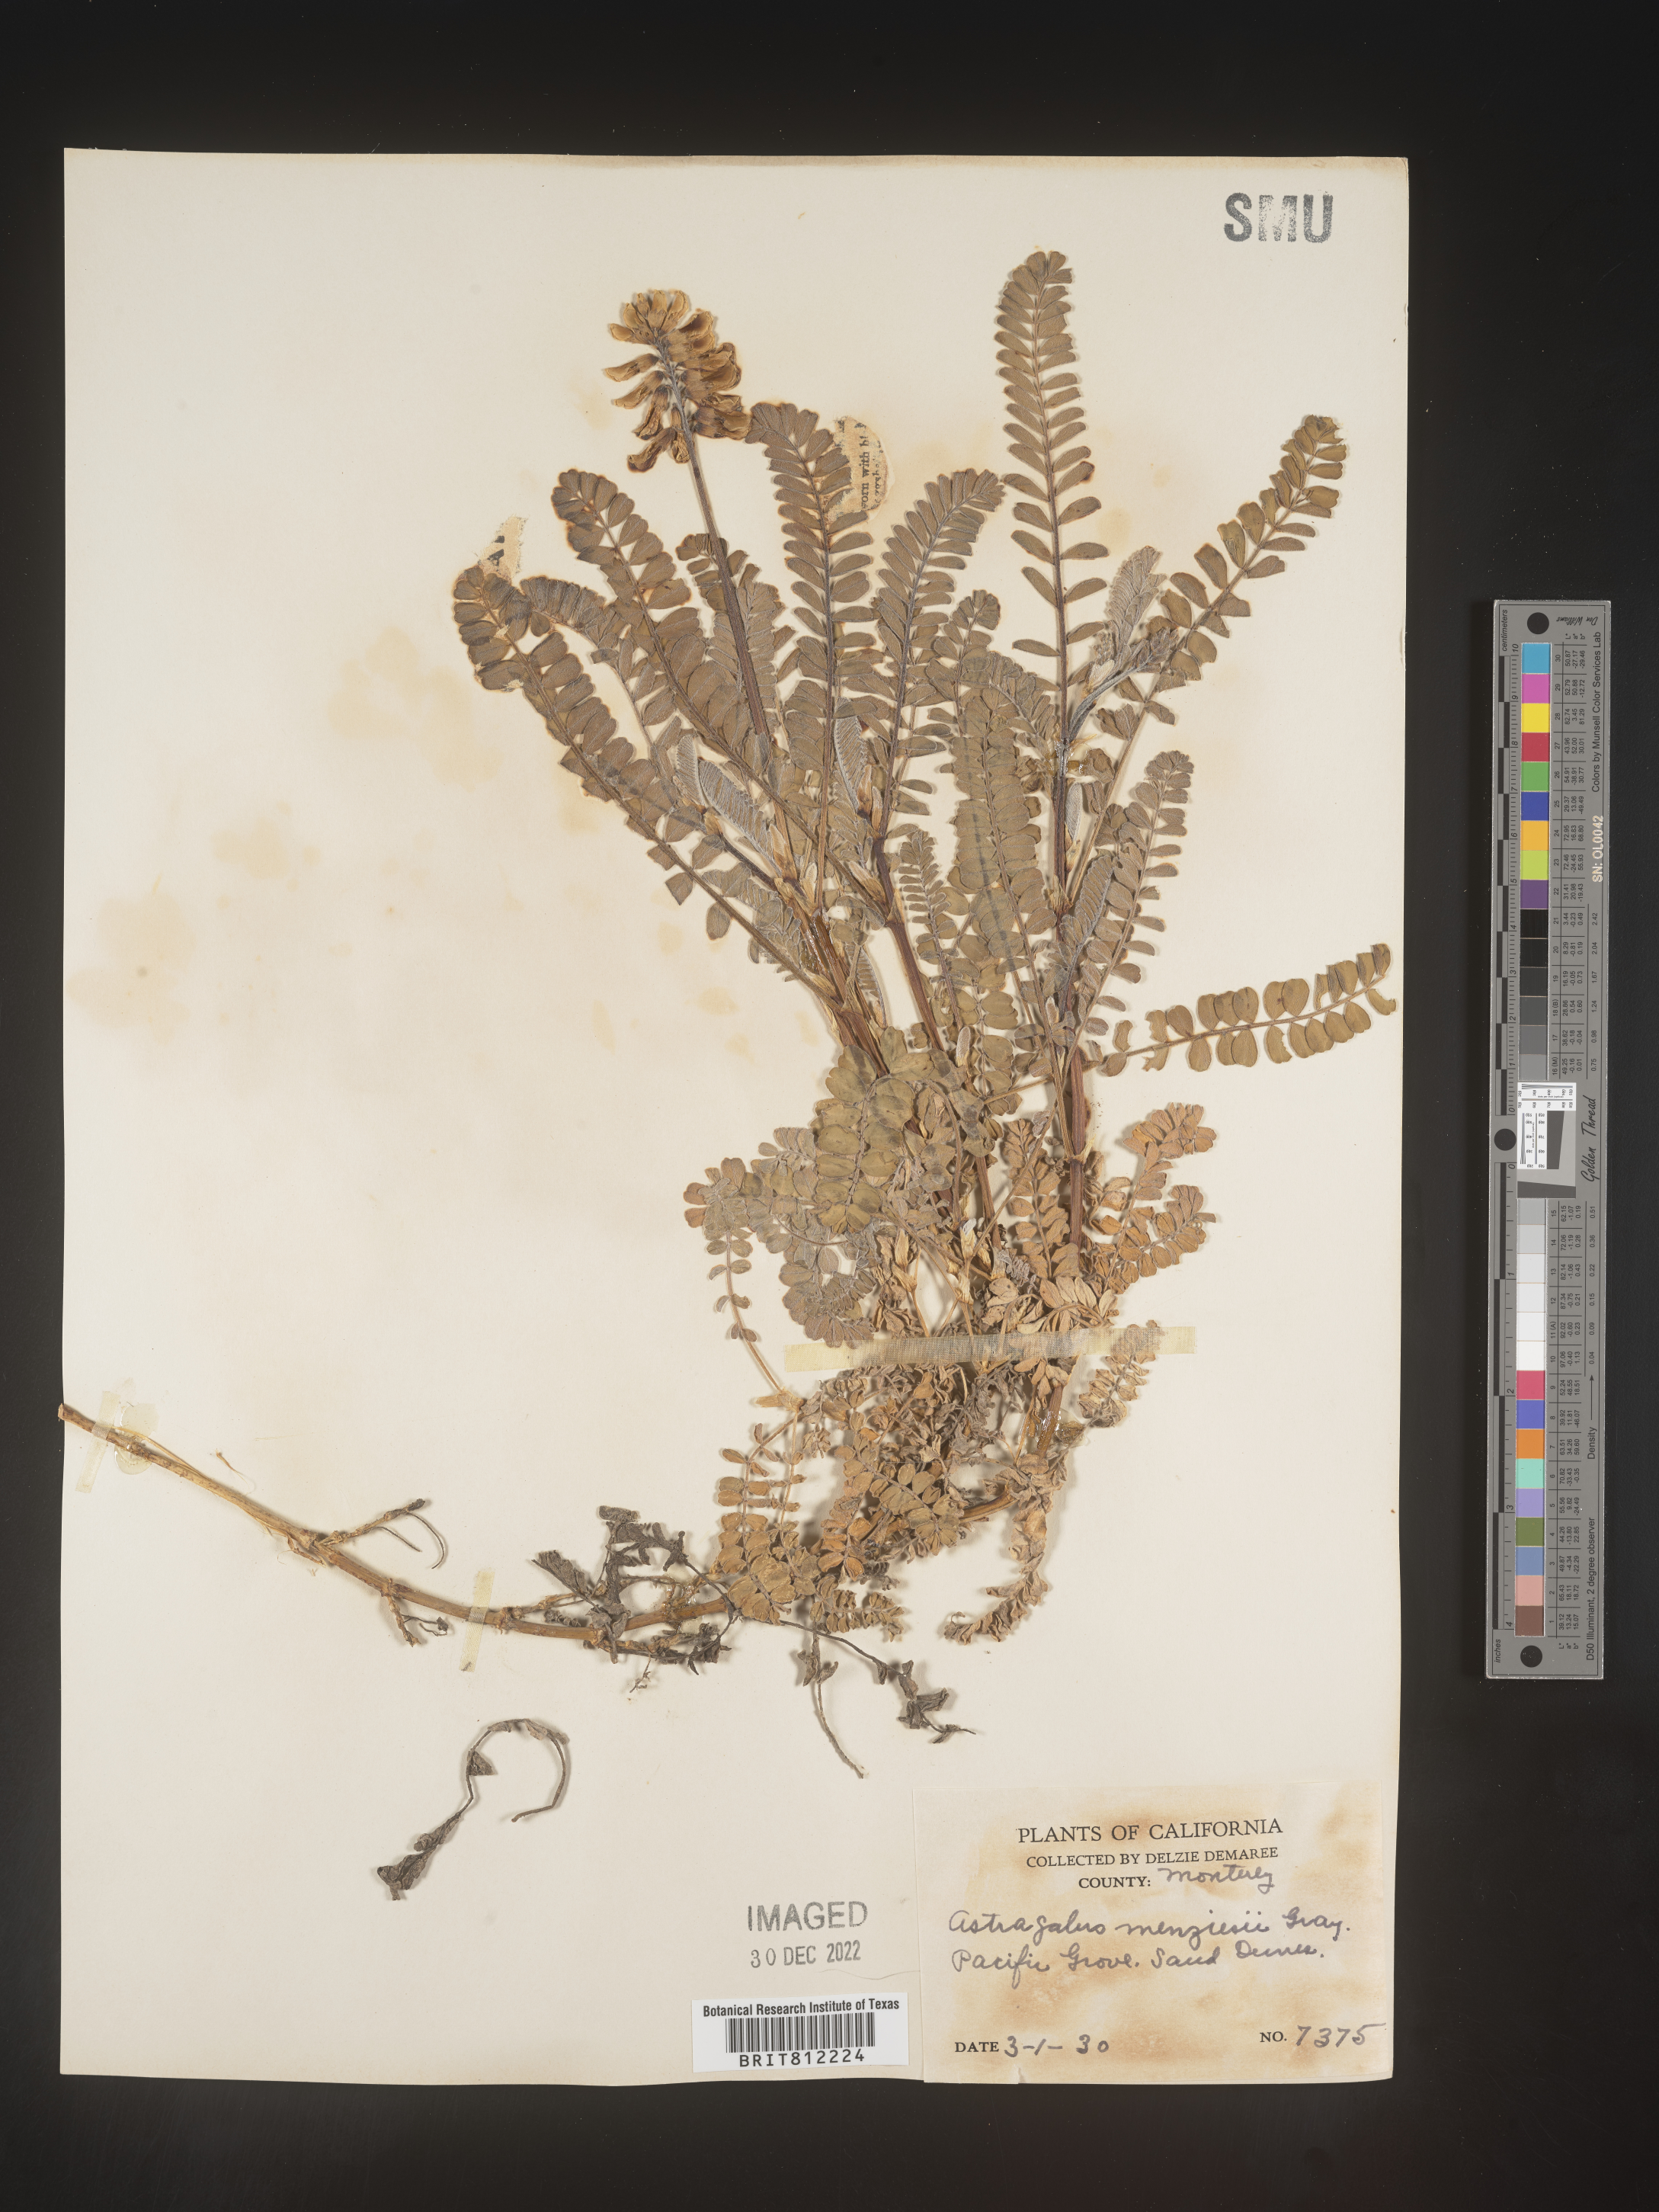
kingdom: Plantae
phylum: Tracheophyta
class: Magnoliopsida
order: Fabales
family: Fabaceae
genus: Astragalus
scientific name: Astragalus
